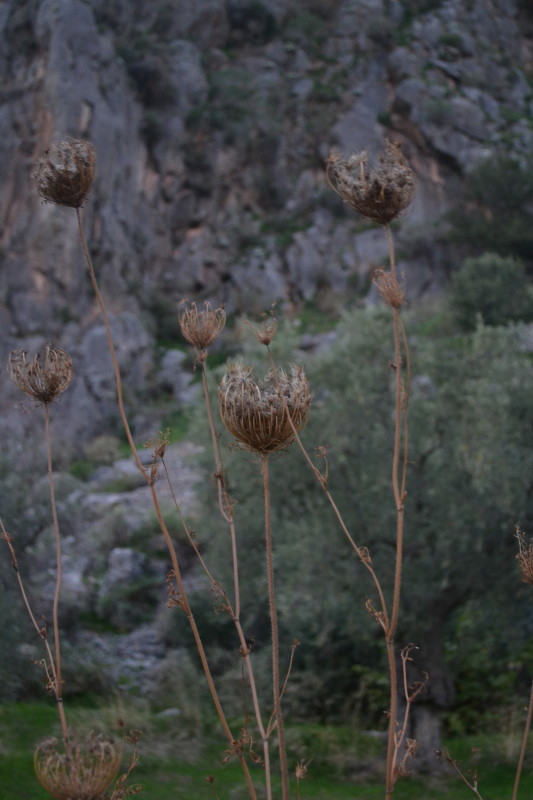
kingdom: Plantae
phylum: Tracheophyta
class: Magnoliopsida
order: Apiales
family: Apiaceae
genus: Daucus
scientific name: Daucus carota
